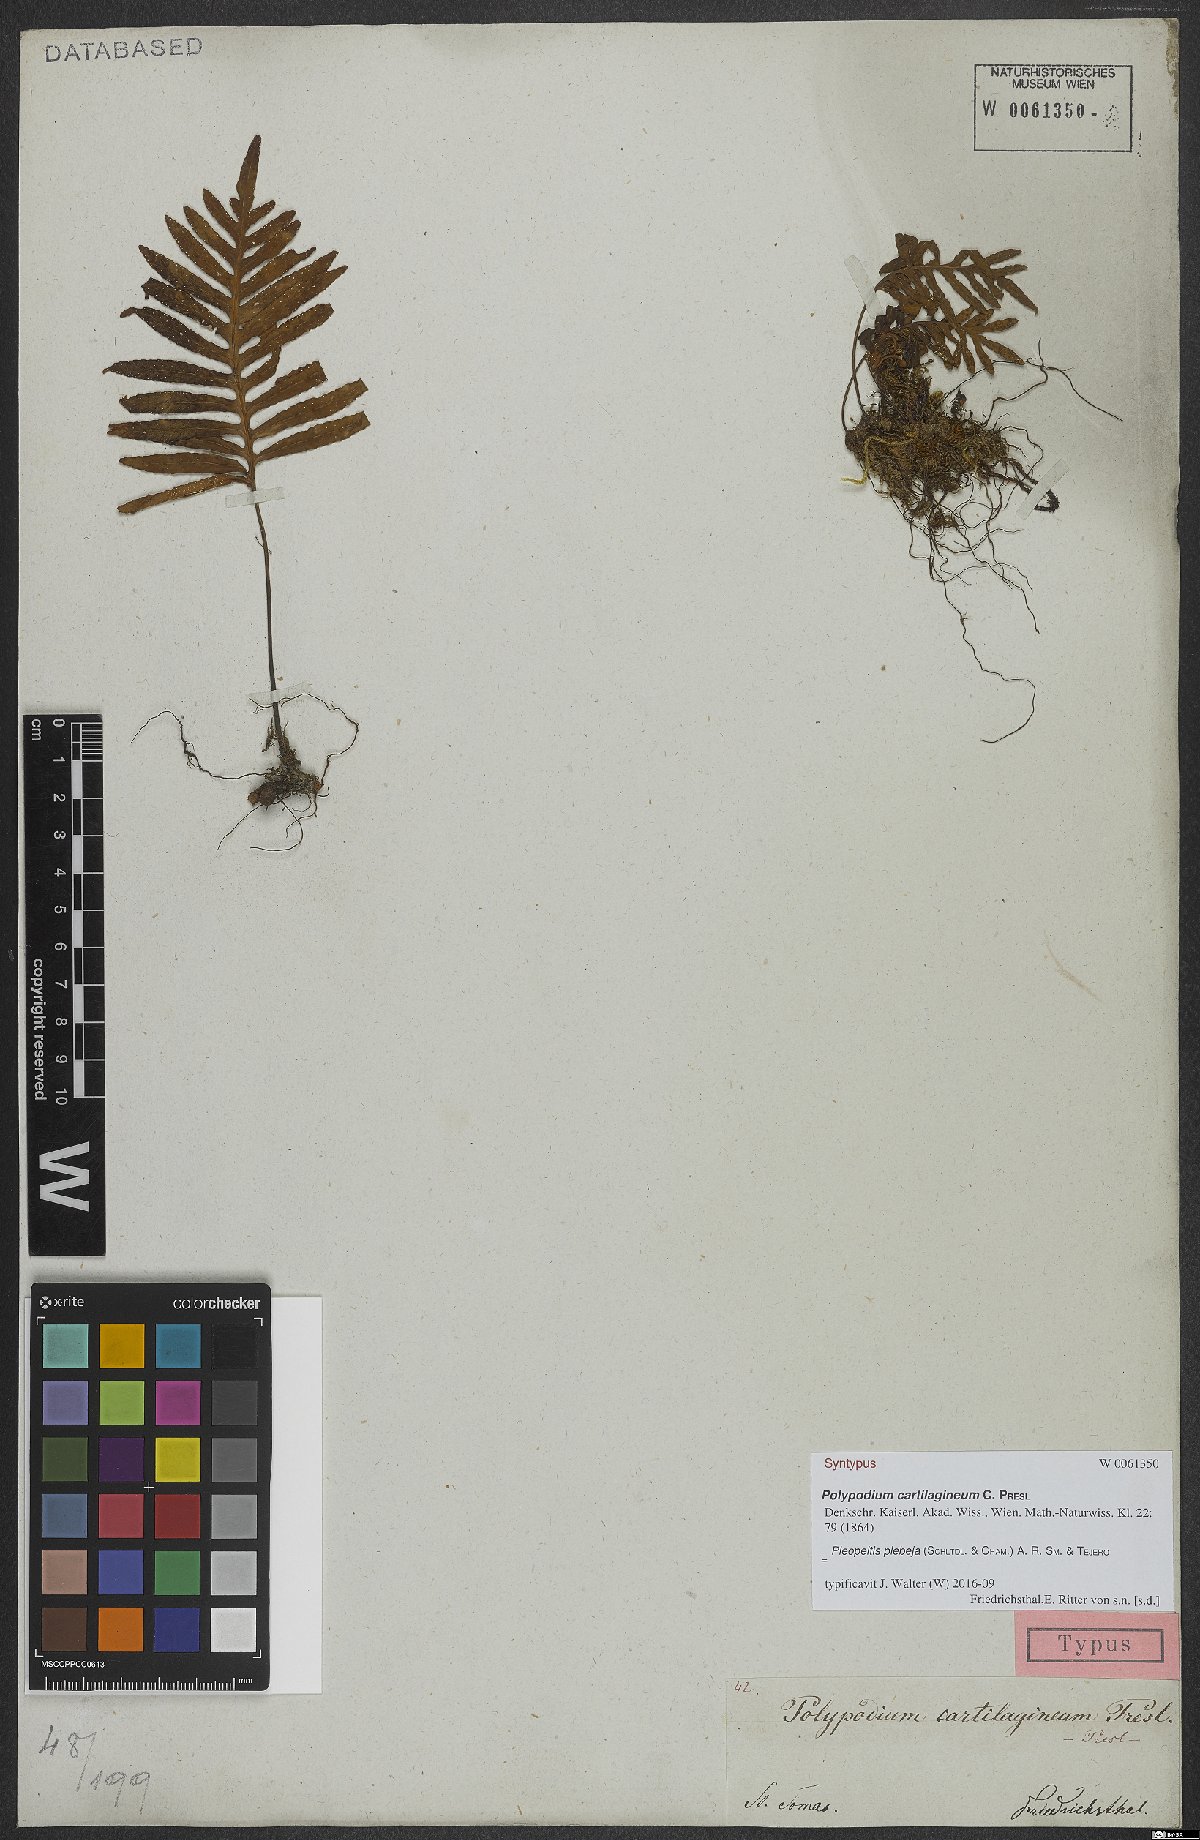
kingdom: Plantae
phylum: Tracheophyta
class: Polypodiopsida
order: Polypodiales
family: Polypodiaceae
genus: Pleopeltis
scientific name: Pleopeltis plebeia
